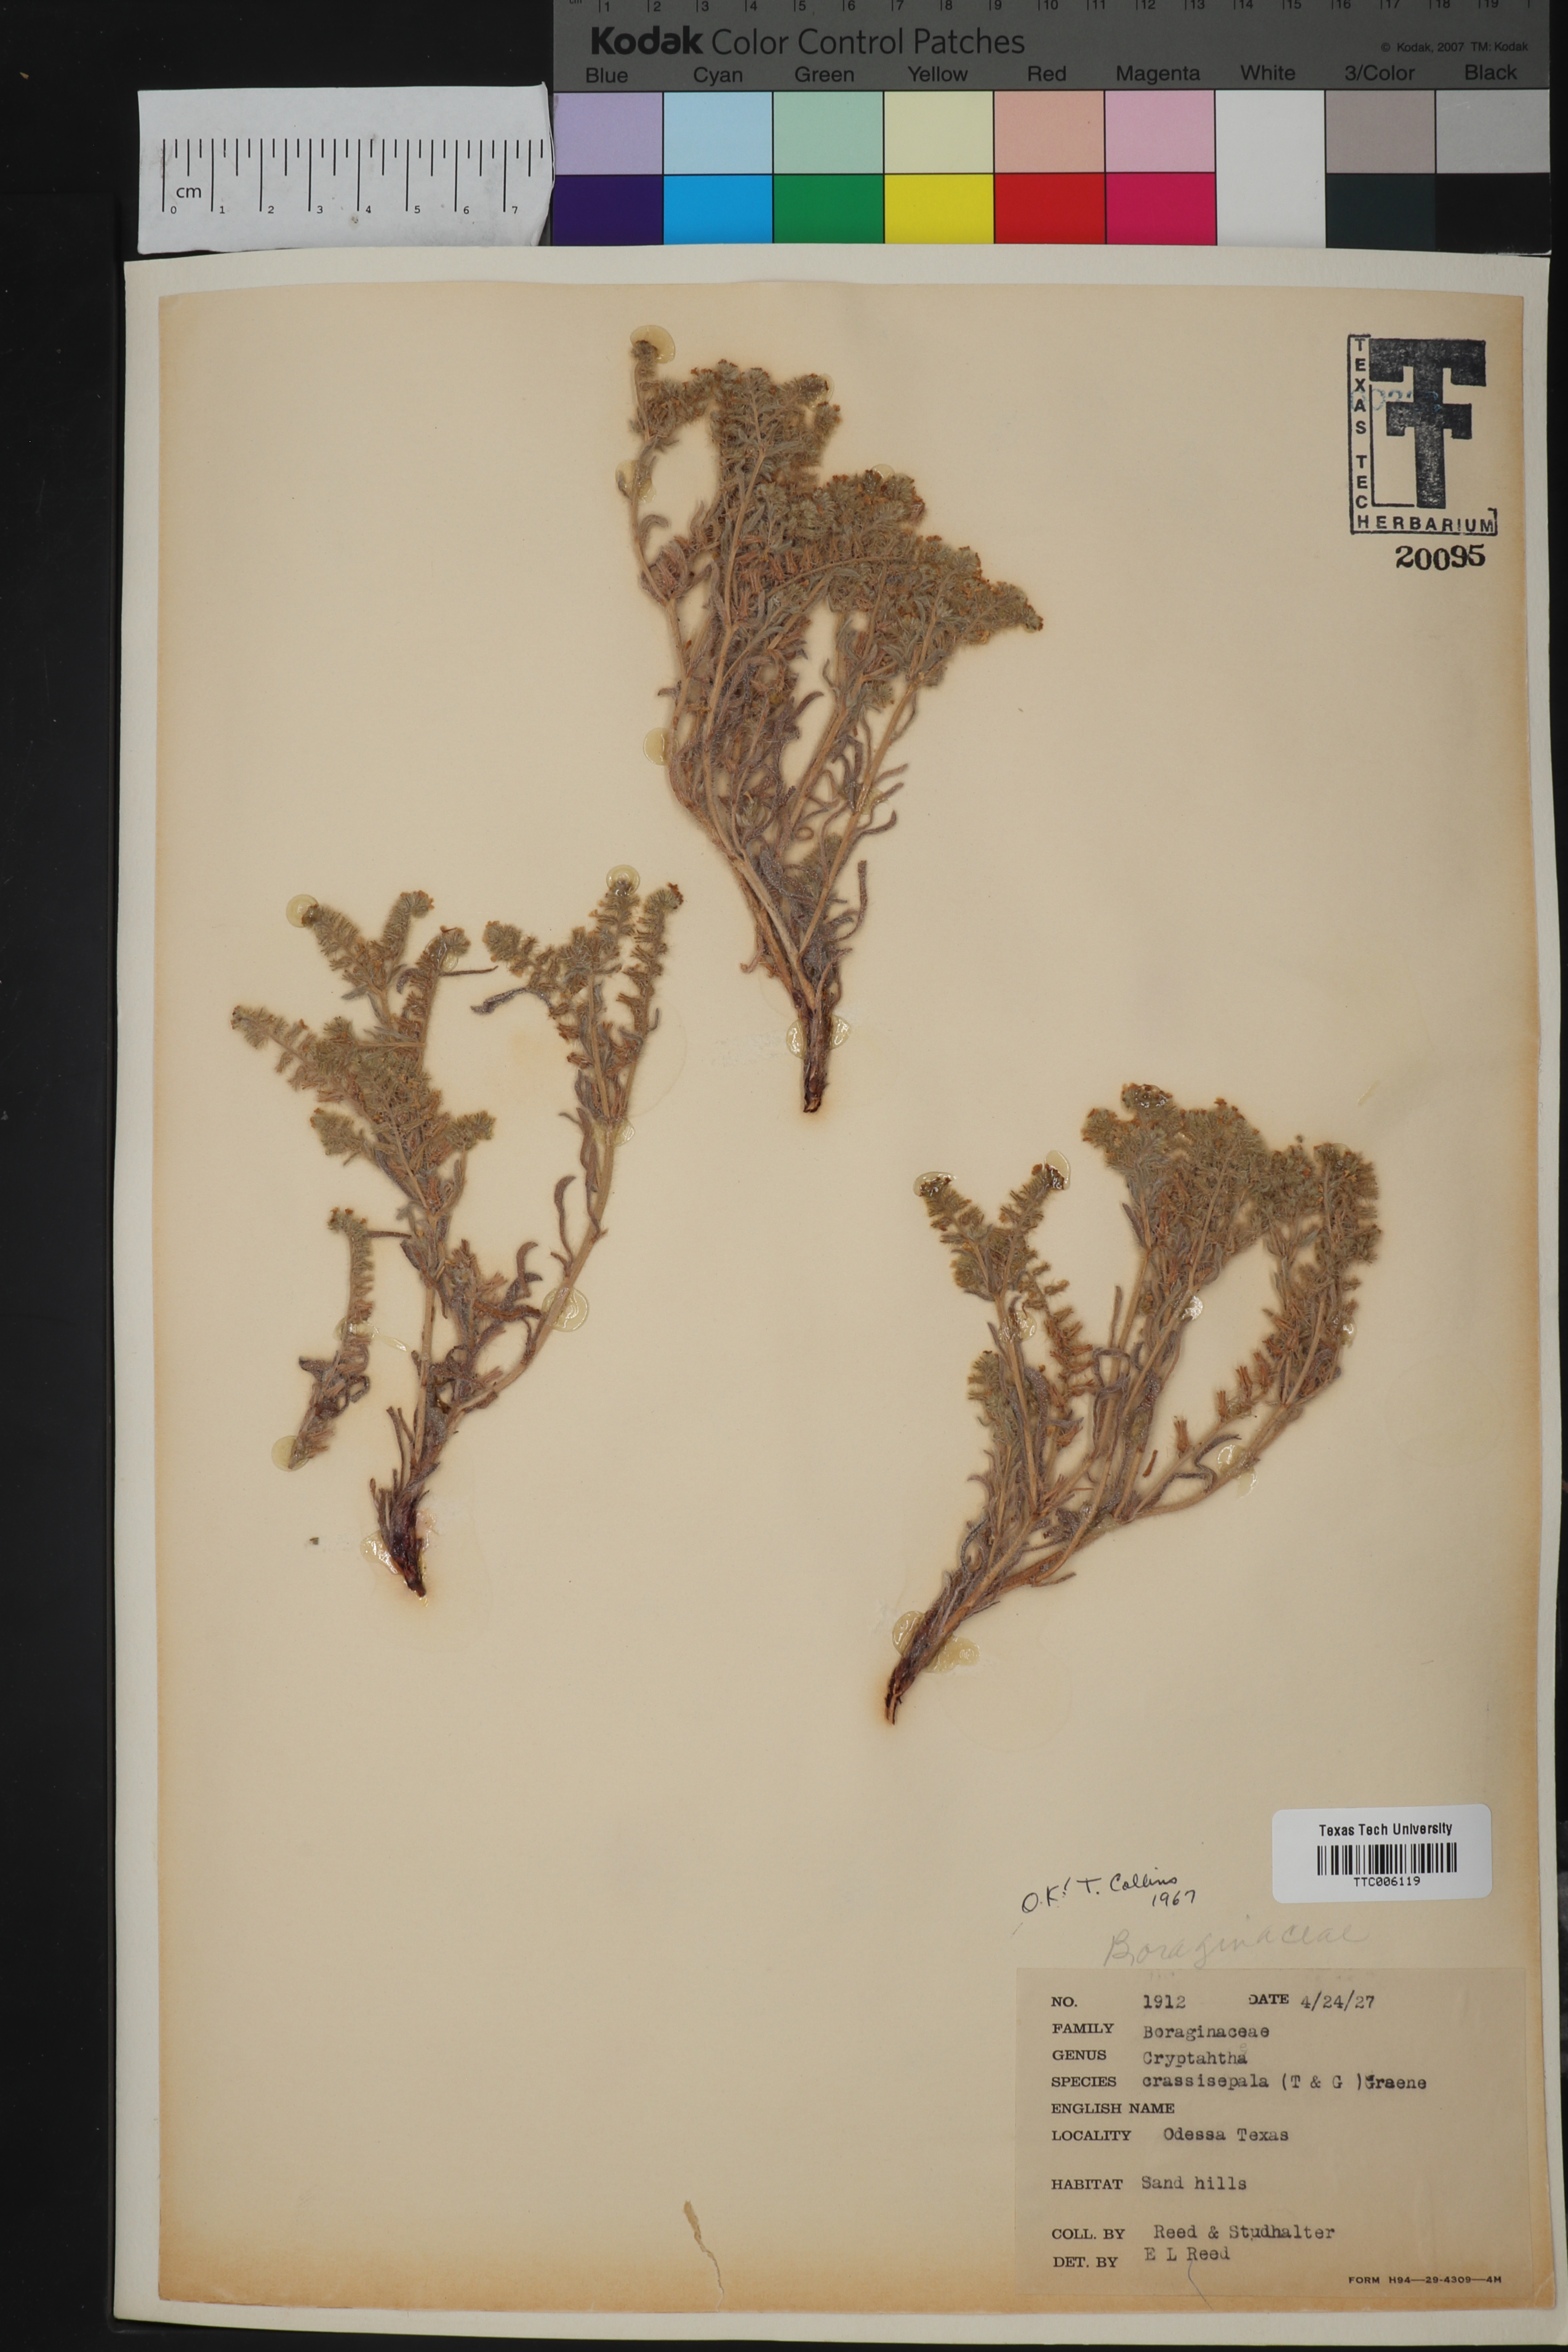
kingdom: Plantae
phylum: Tracheophyta
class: Magnoliopsida
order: Boraginales
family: Boraginaceae
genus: Cryptantha
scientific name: Cryptantha crassisepala
